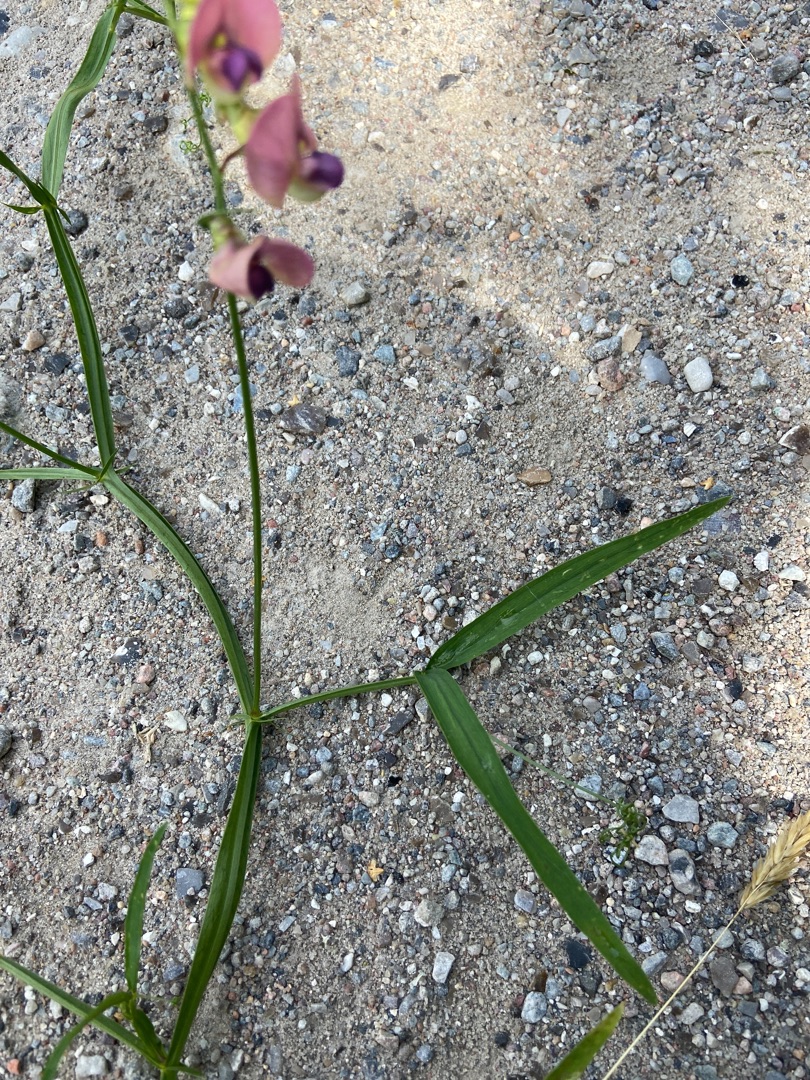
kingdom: Plantae
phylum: Tracheophyta
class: Magnoliopsida
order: Fabales
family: Fabaceae
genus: Lathyrus
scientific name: Lathyrus sylvestris
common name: Skov-fladbælg
